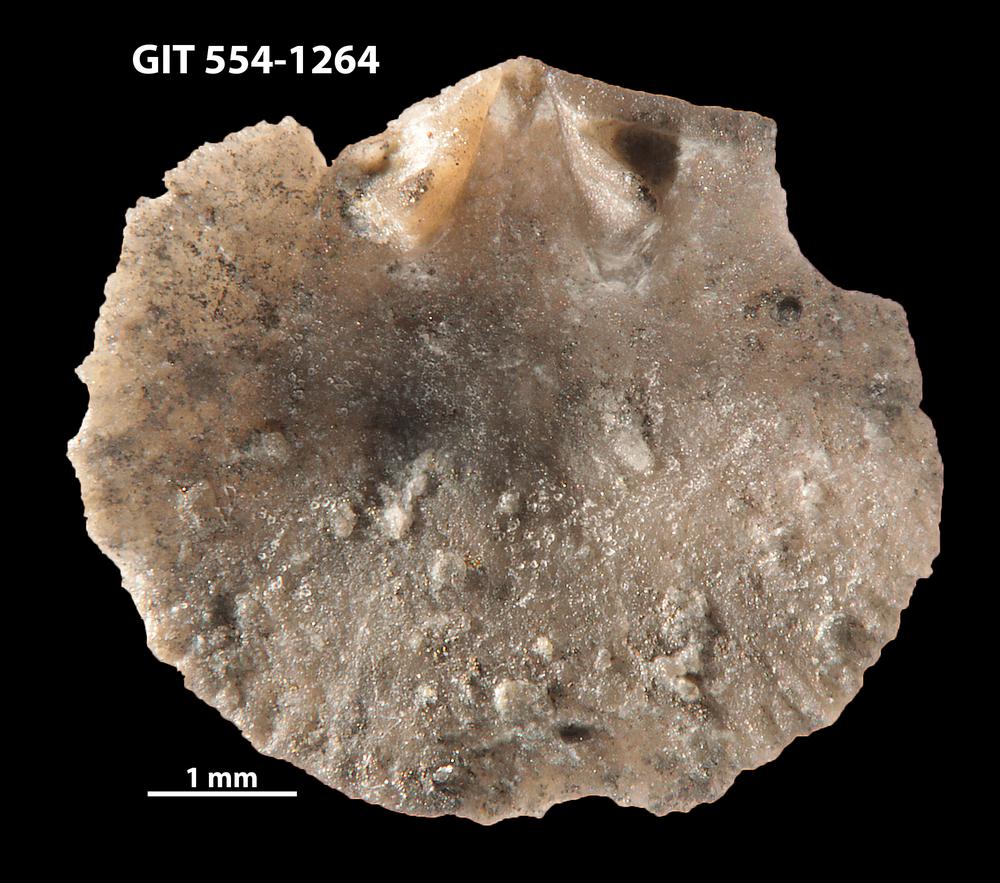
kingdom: Animalia
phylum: Brachiopoda
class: Rhynchonellata
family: Rhipidomellidae
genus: Mendacella
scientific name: Mendacella circularis
